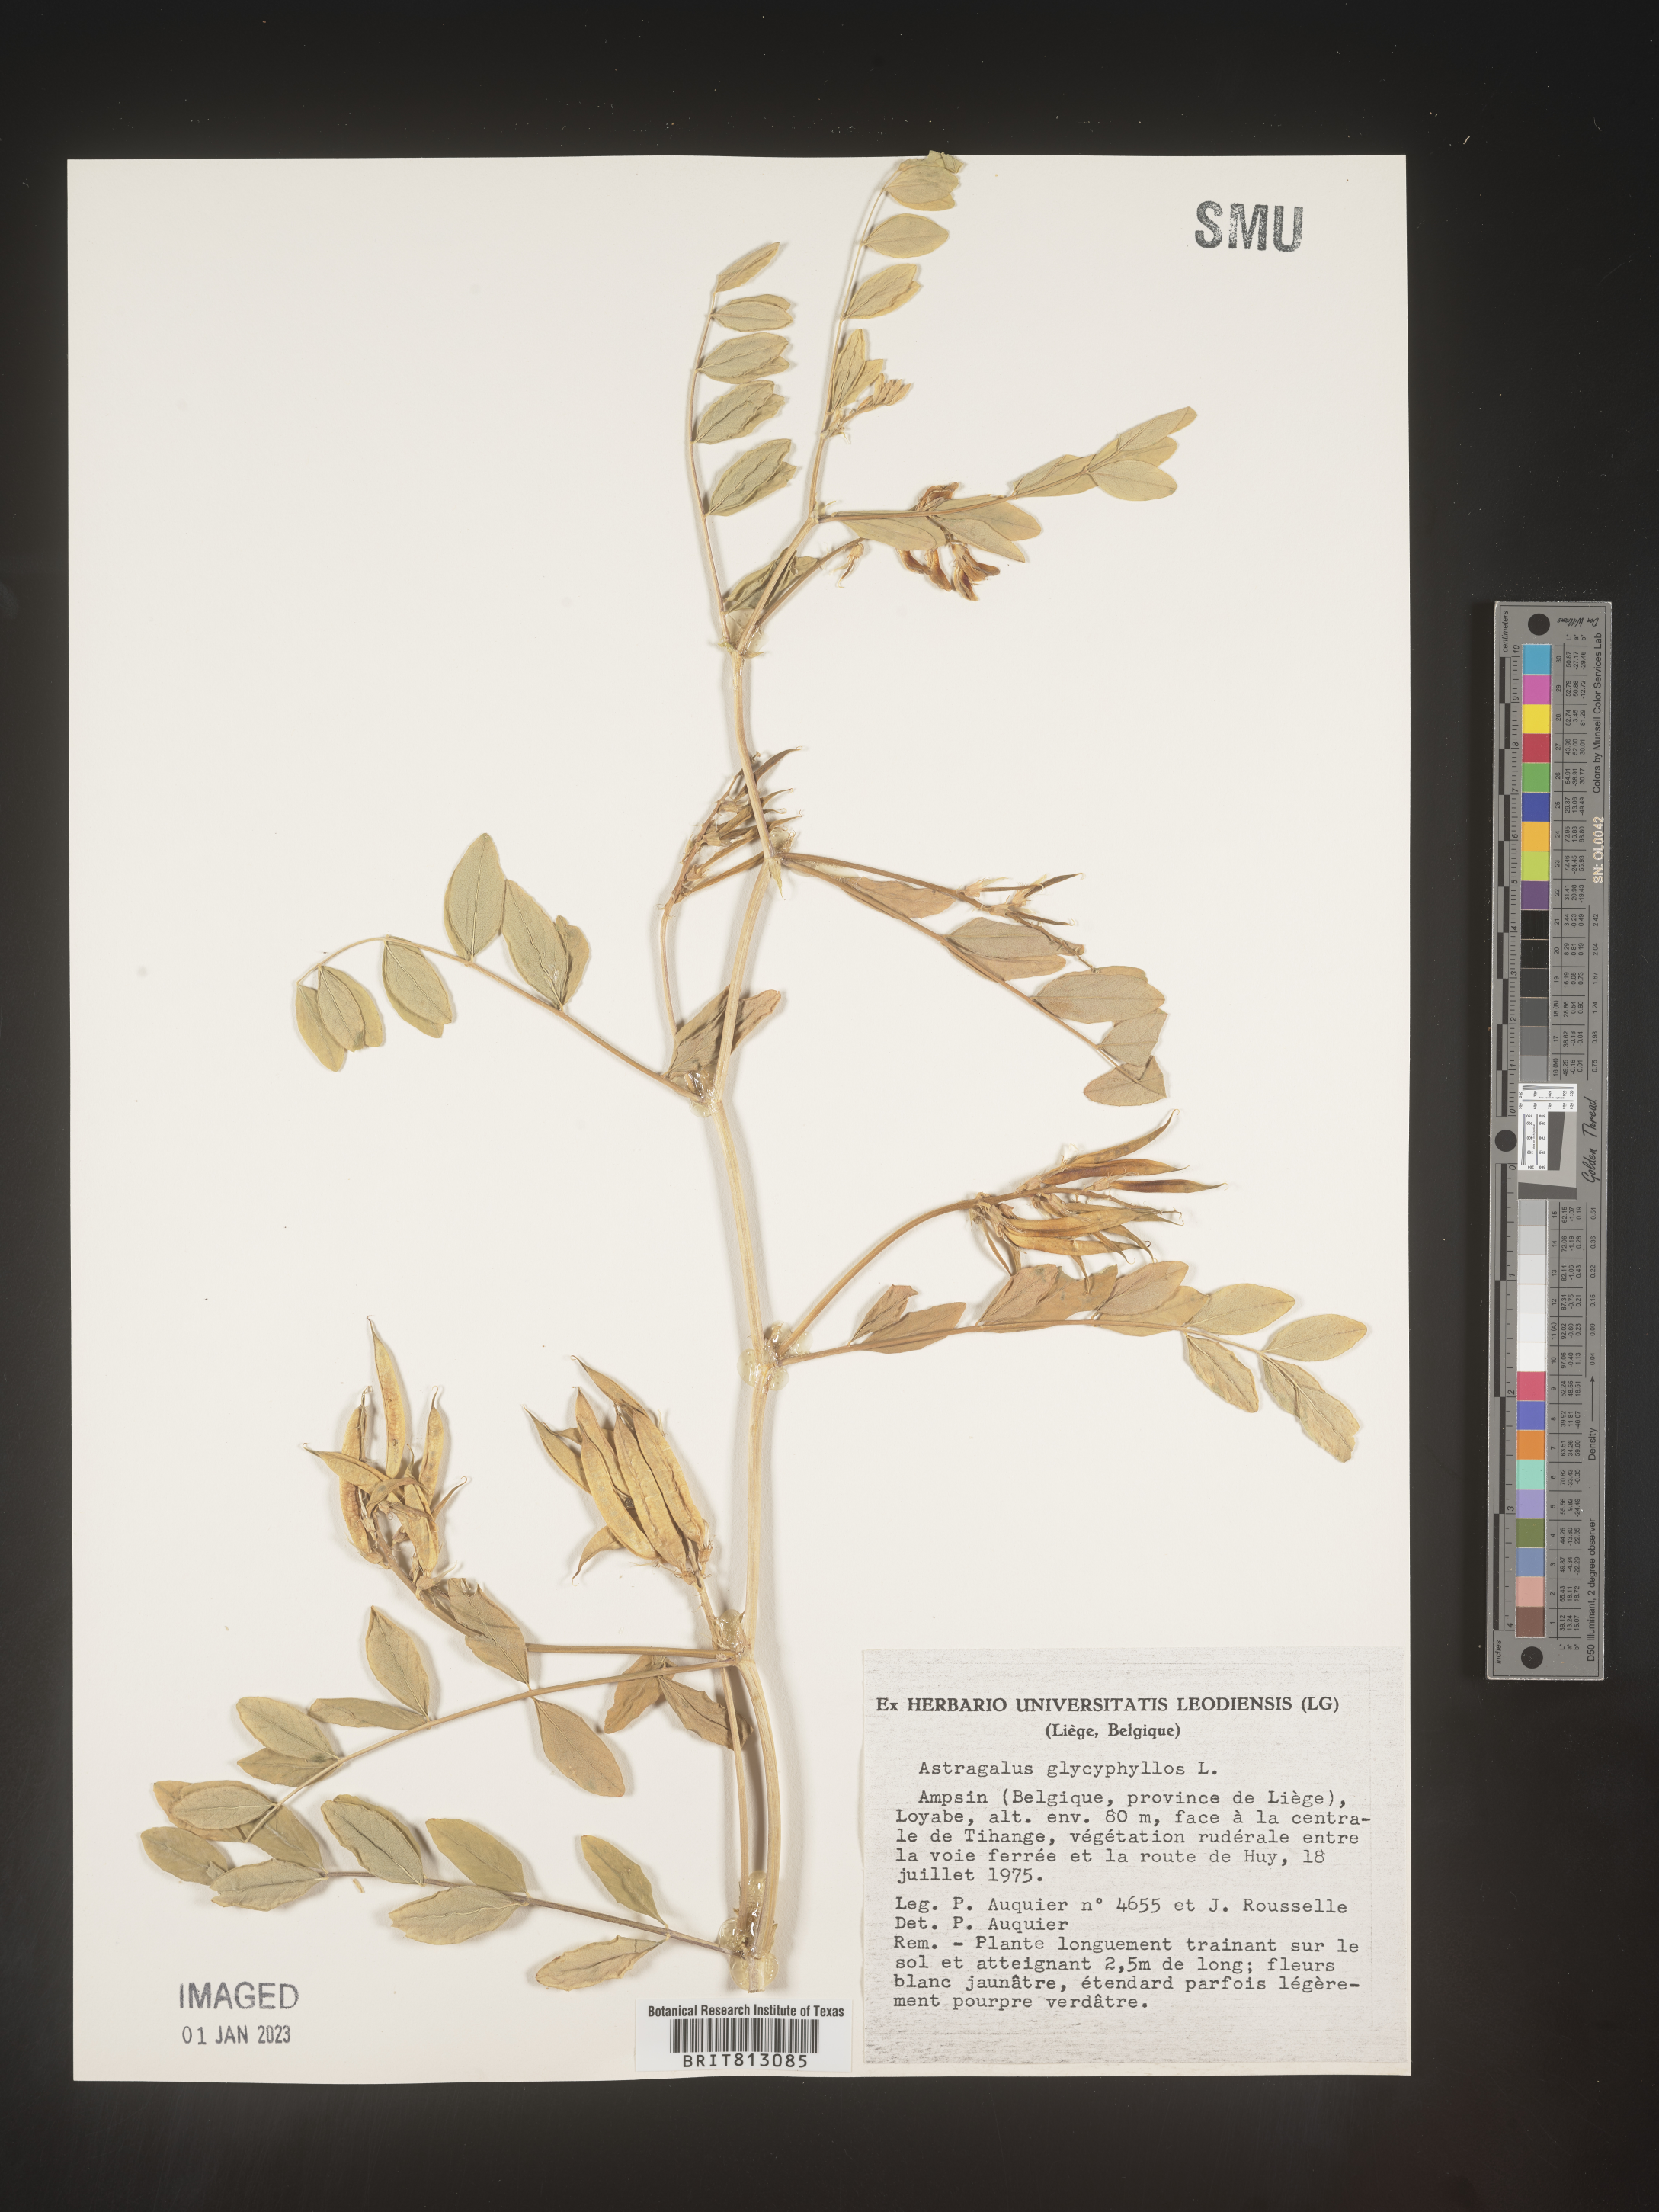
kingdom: Plantae
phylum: Tracheophyta
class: Magnoliopsida
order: Fabales
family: Fabaceae
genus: Astragalus
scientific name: Astragalus
